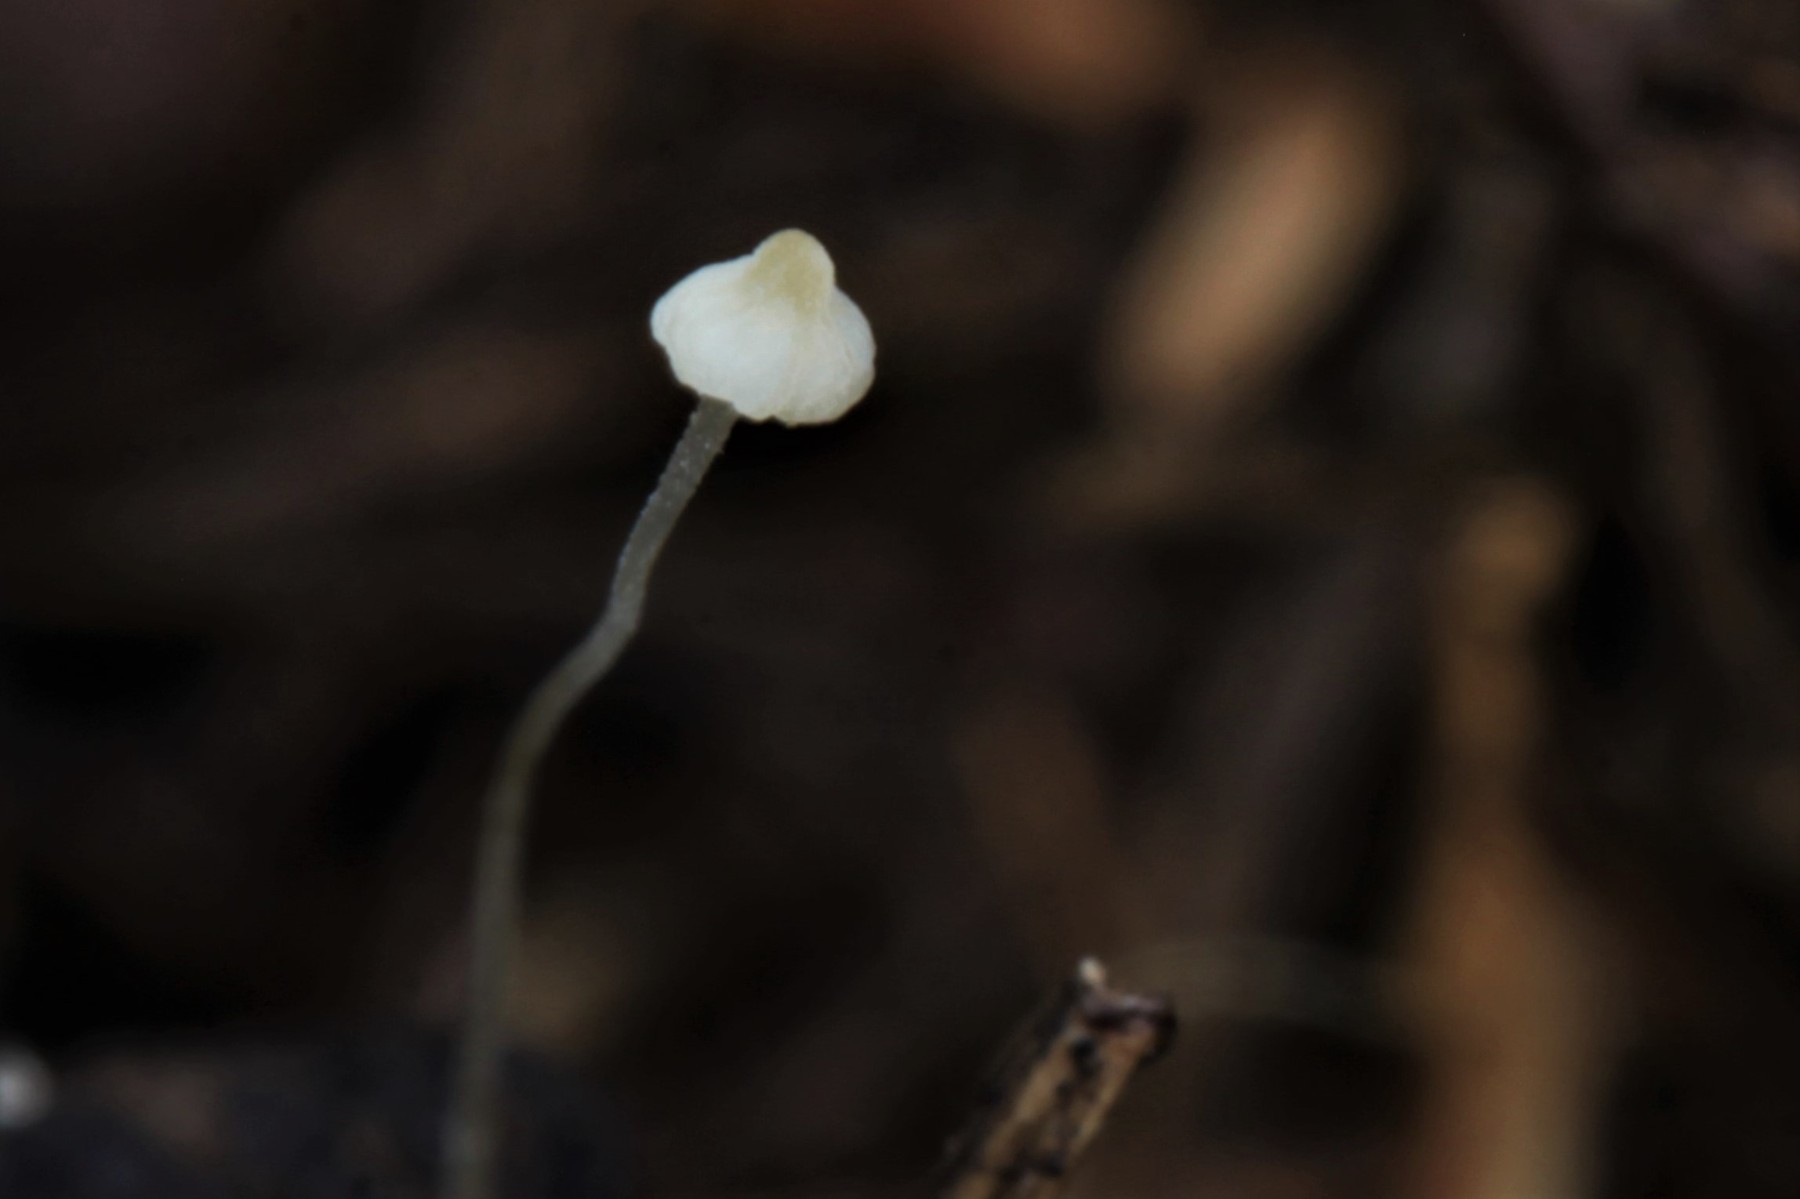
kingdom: Fungi
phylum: Basidiomycota
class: Agaricomycetes
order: Agaricales
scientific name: Agaricales
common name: champignonordenen
